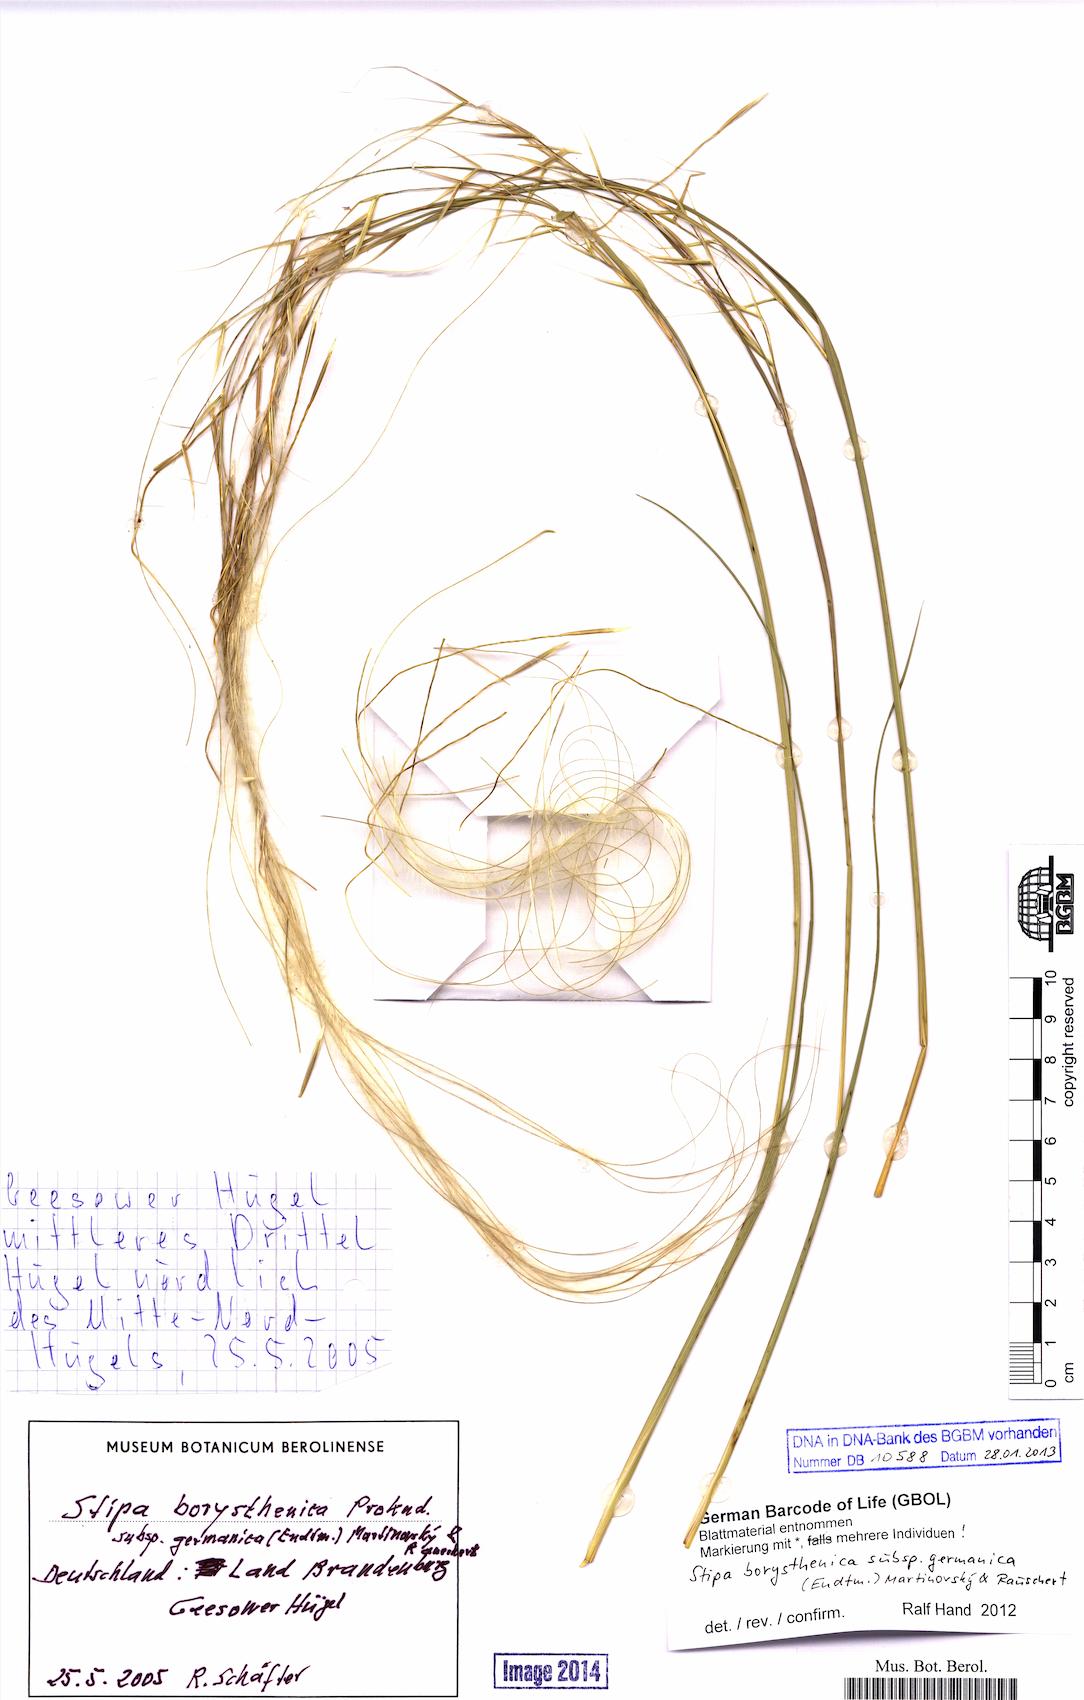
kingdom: Plantae
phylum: Tracheophyta
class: Liliopsida
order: Poales
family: Poaceae
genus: Stipa
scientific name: Stipa borysthenica
